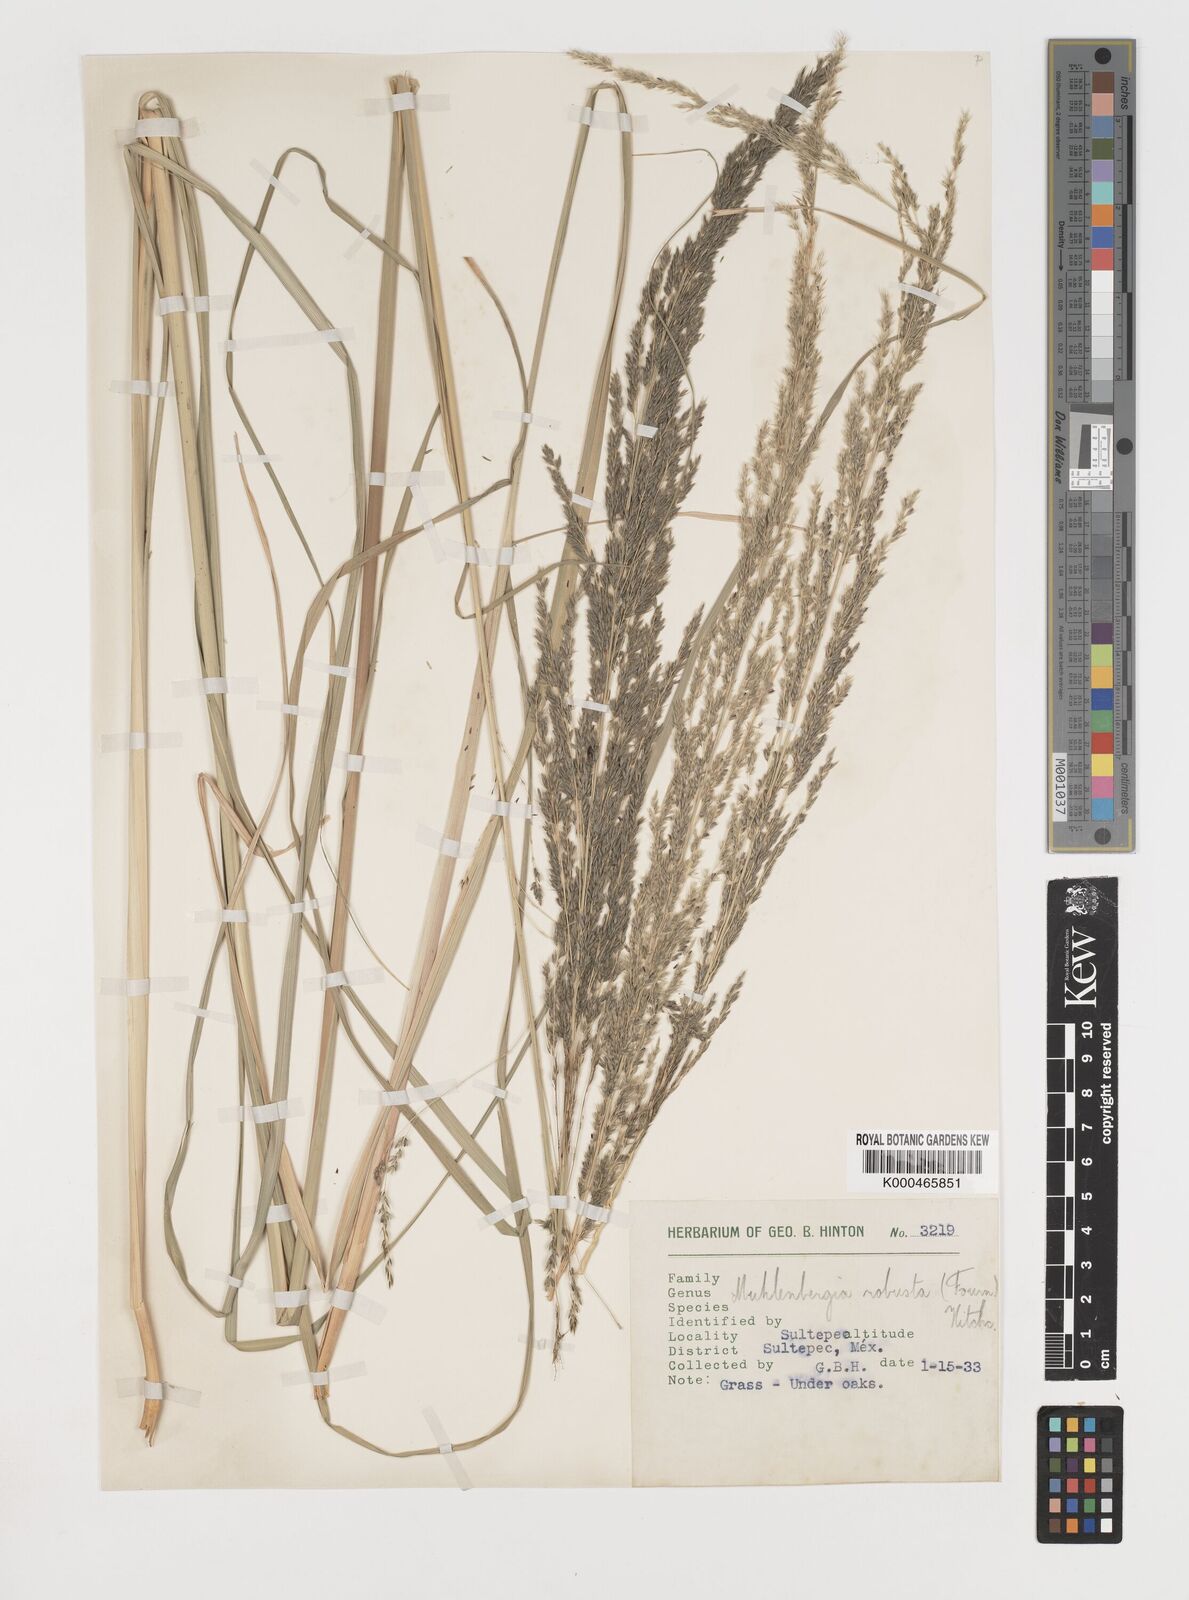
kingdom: Plantae
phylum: Tracheophyta
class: Liliopsida
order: Poales
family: Poaceae
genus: Muhlenbergia
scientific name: Muhlenbergia robusta
